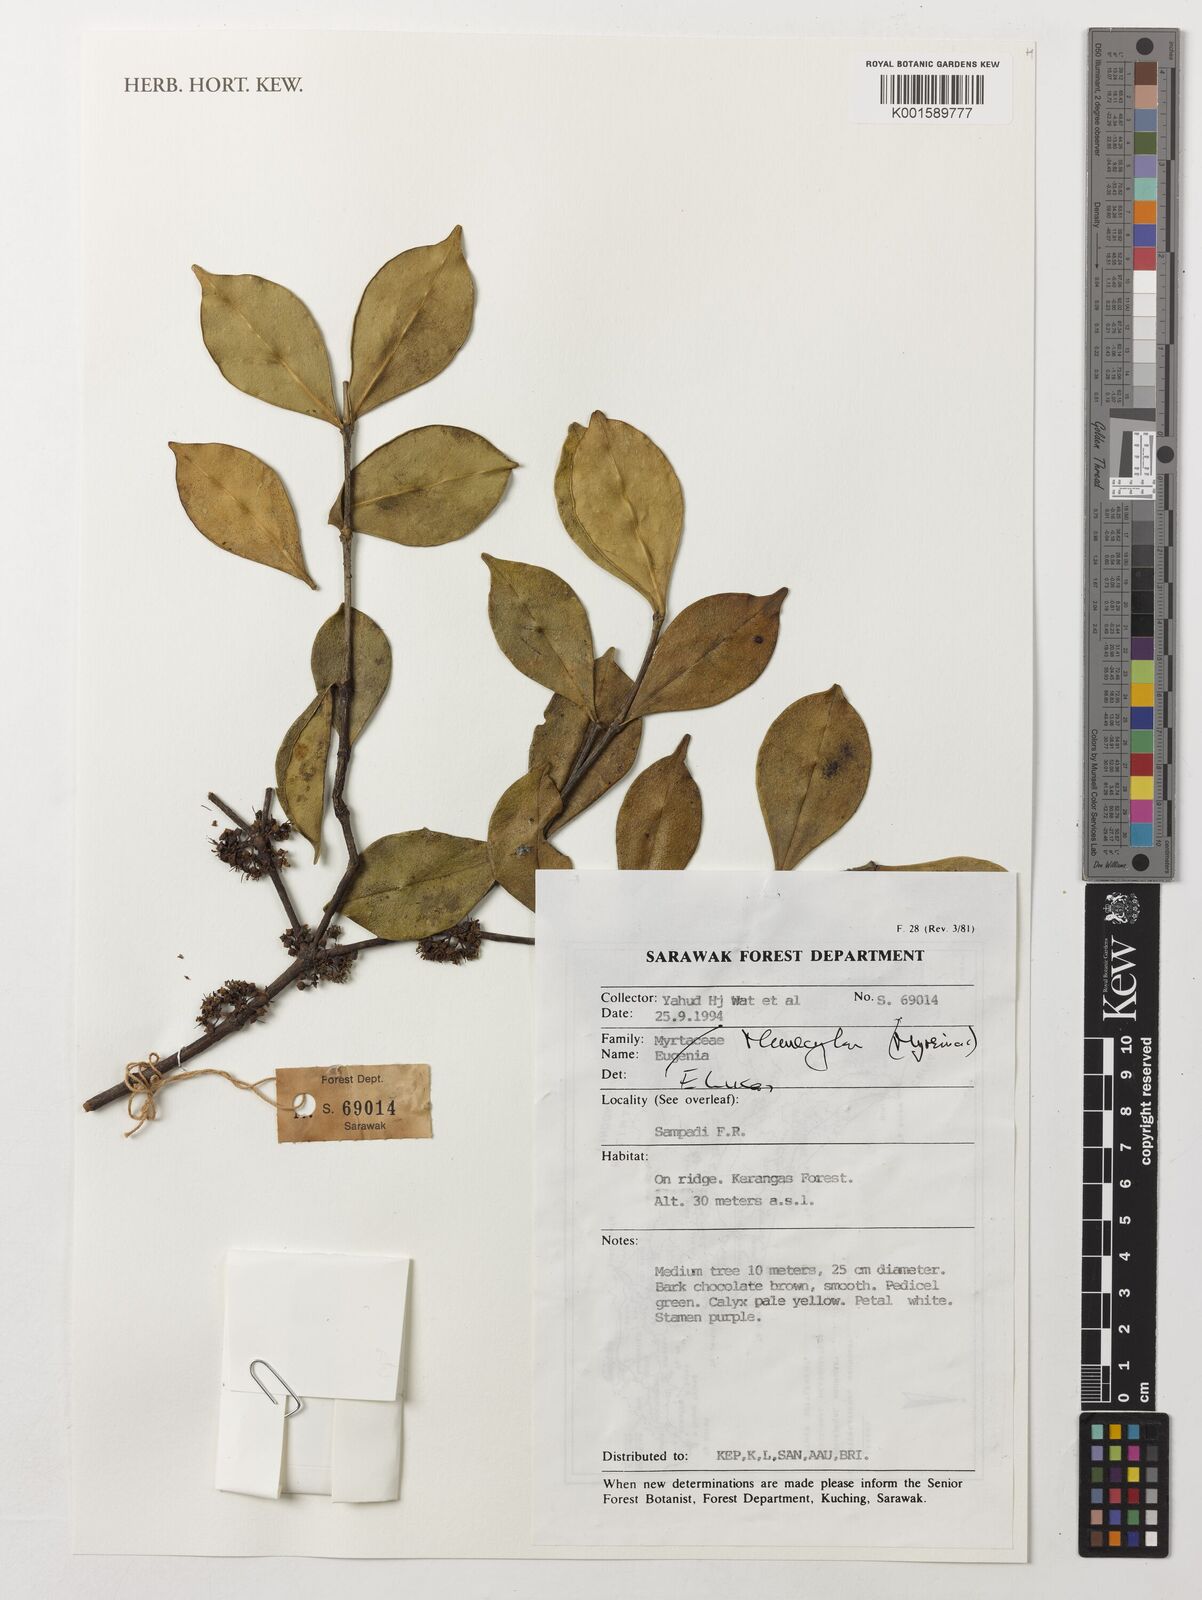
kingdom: Plantae
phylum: Tracheophyta
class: Magnoliopsida
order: Myrtales
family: Melastomataceae
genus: Memecylon
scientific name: Memecylon
